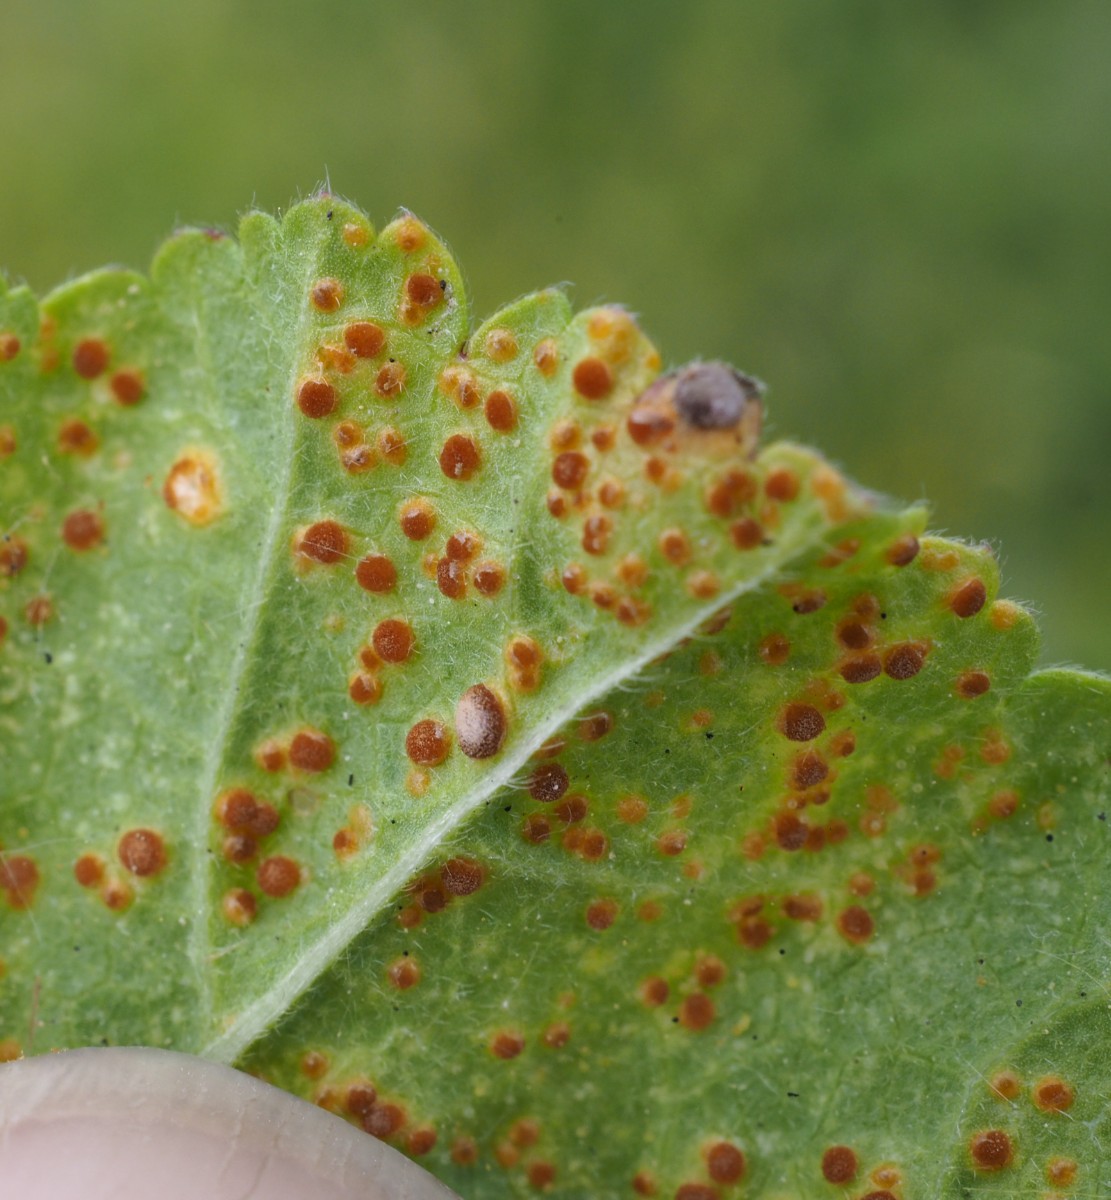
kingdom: Fungi
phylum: Basidiomycota
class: Pucciniomycetes
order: Pucciniales
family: Pucciniaceae
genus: Puccinia
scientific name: Puccinia malvacearum
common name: stokrose-tvecellerust
